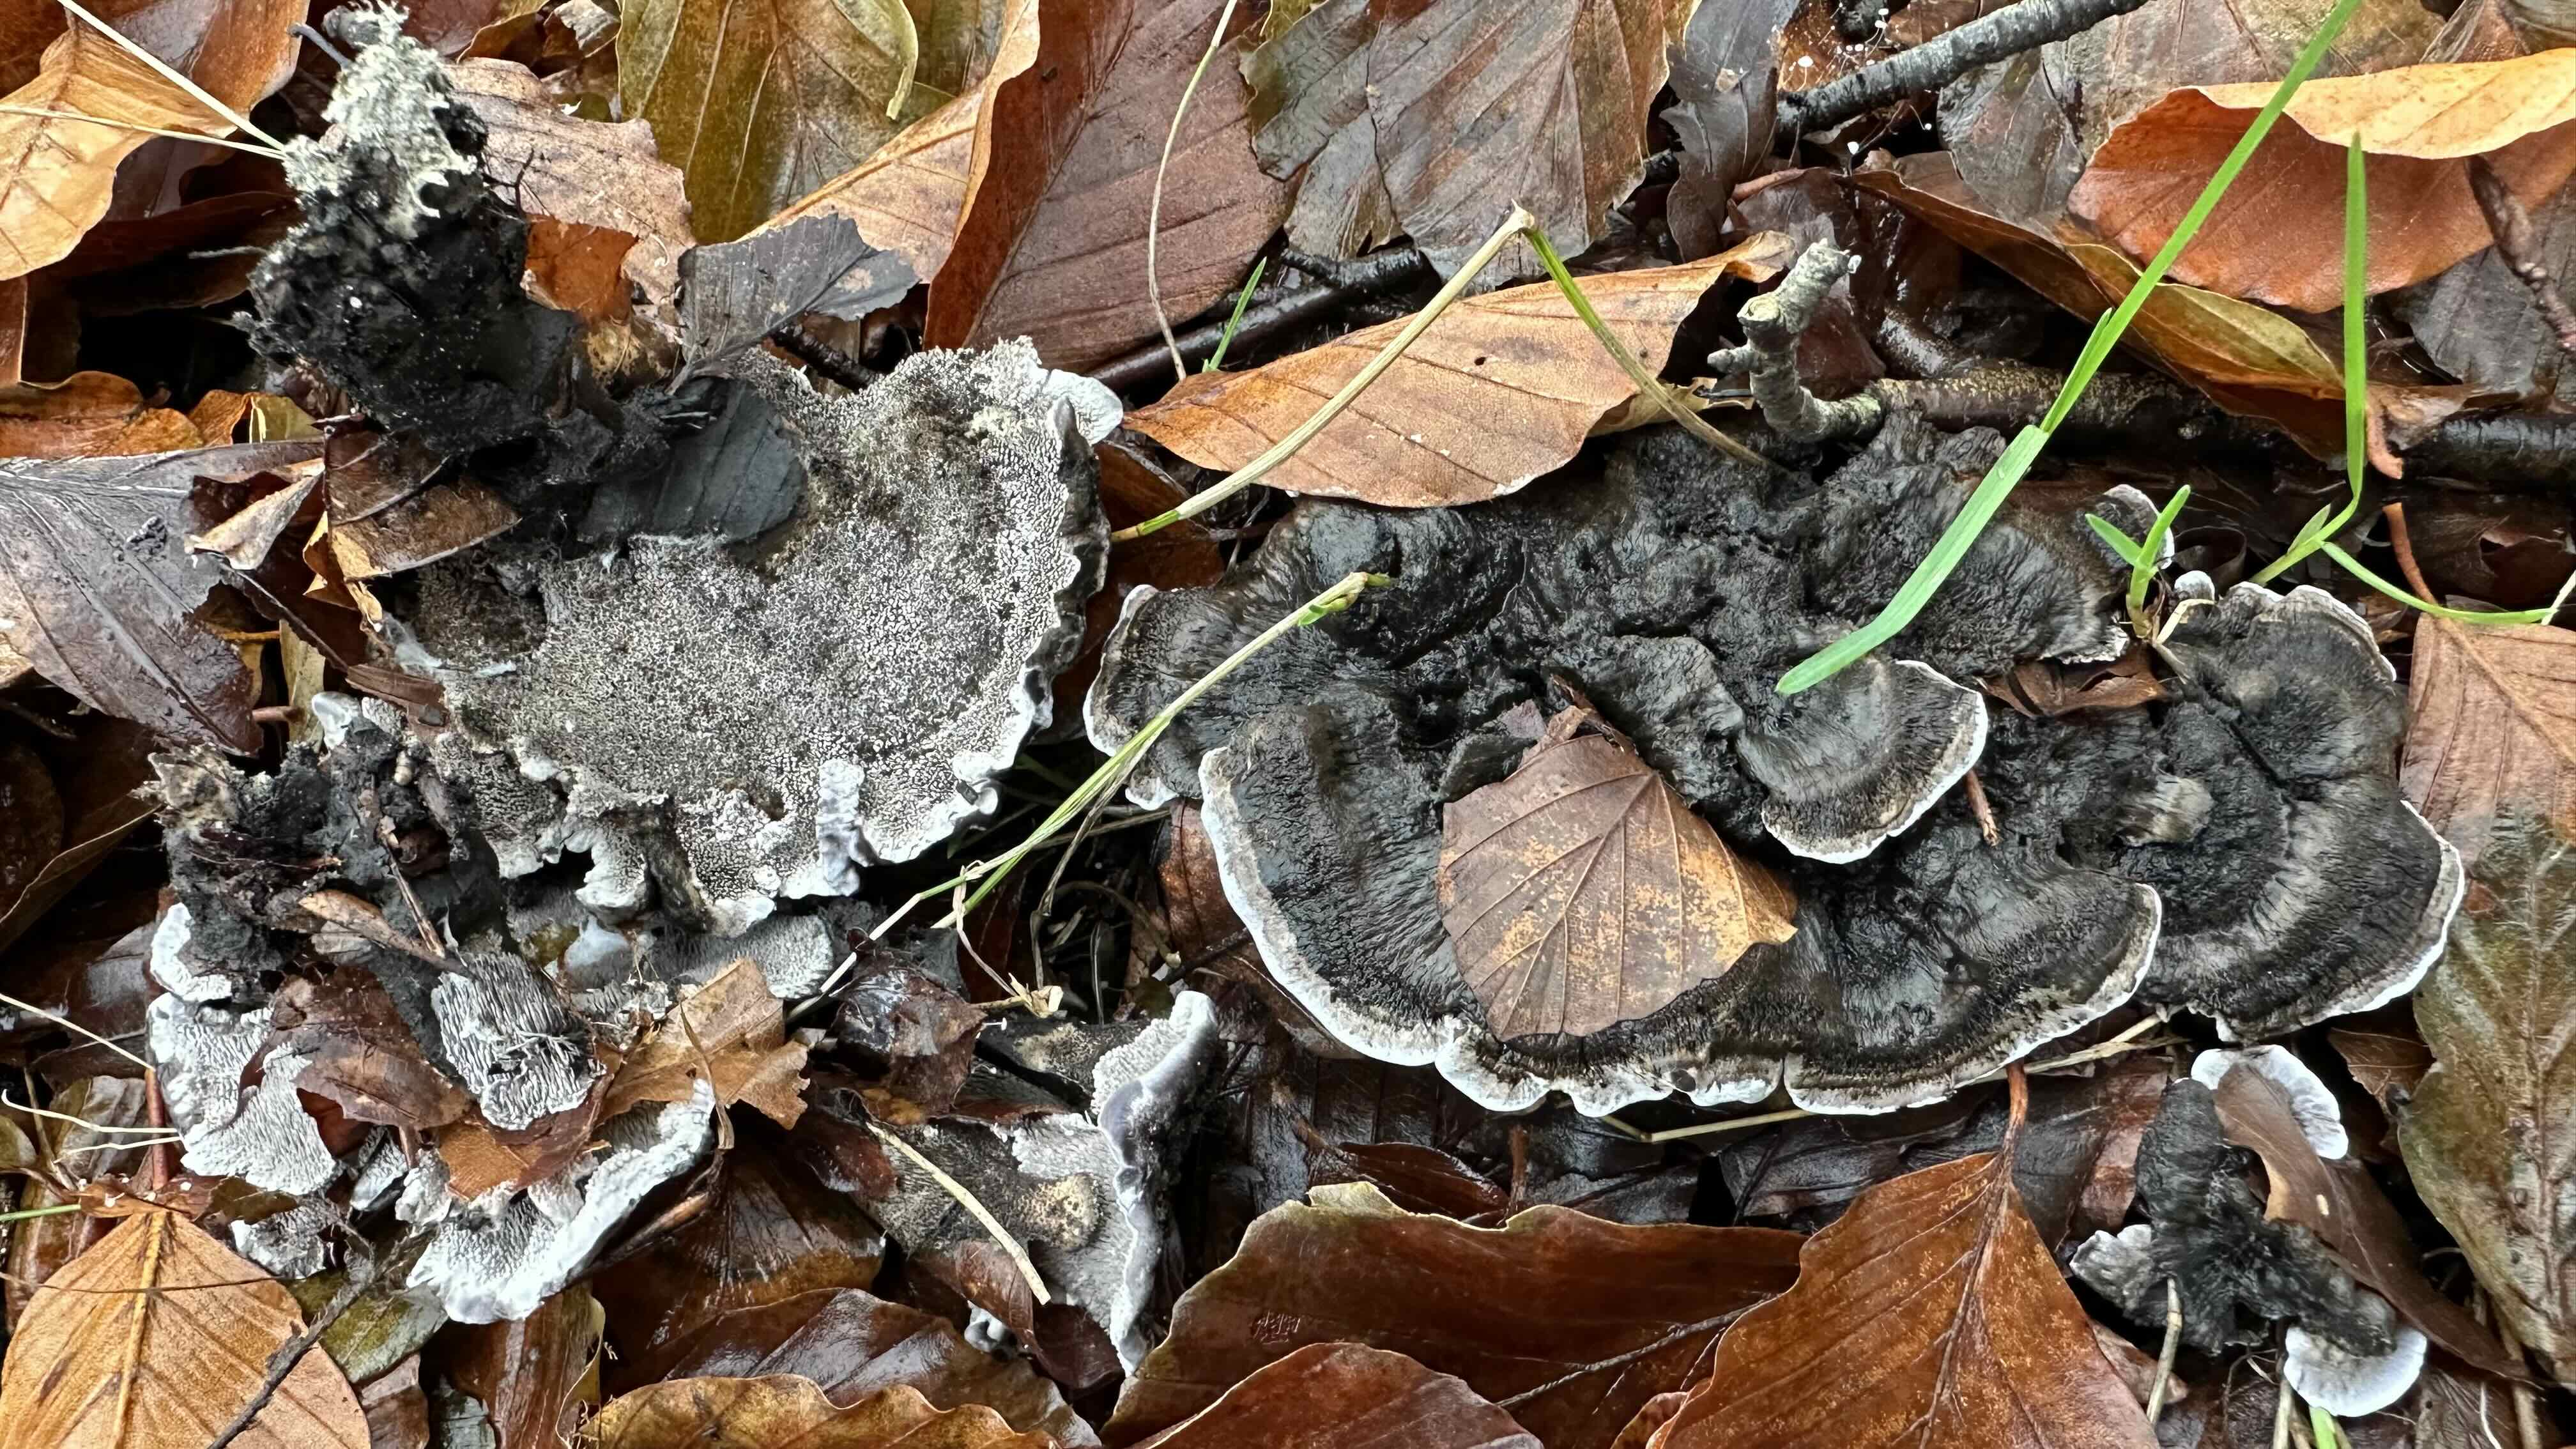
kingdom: Fungi
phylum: Basidiomycota
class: Agaricomycetes
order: Thelephorales
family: Thelephoraceae
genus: Phellodon
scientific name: Phellodon
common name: mørk duftpigsvamp
